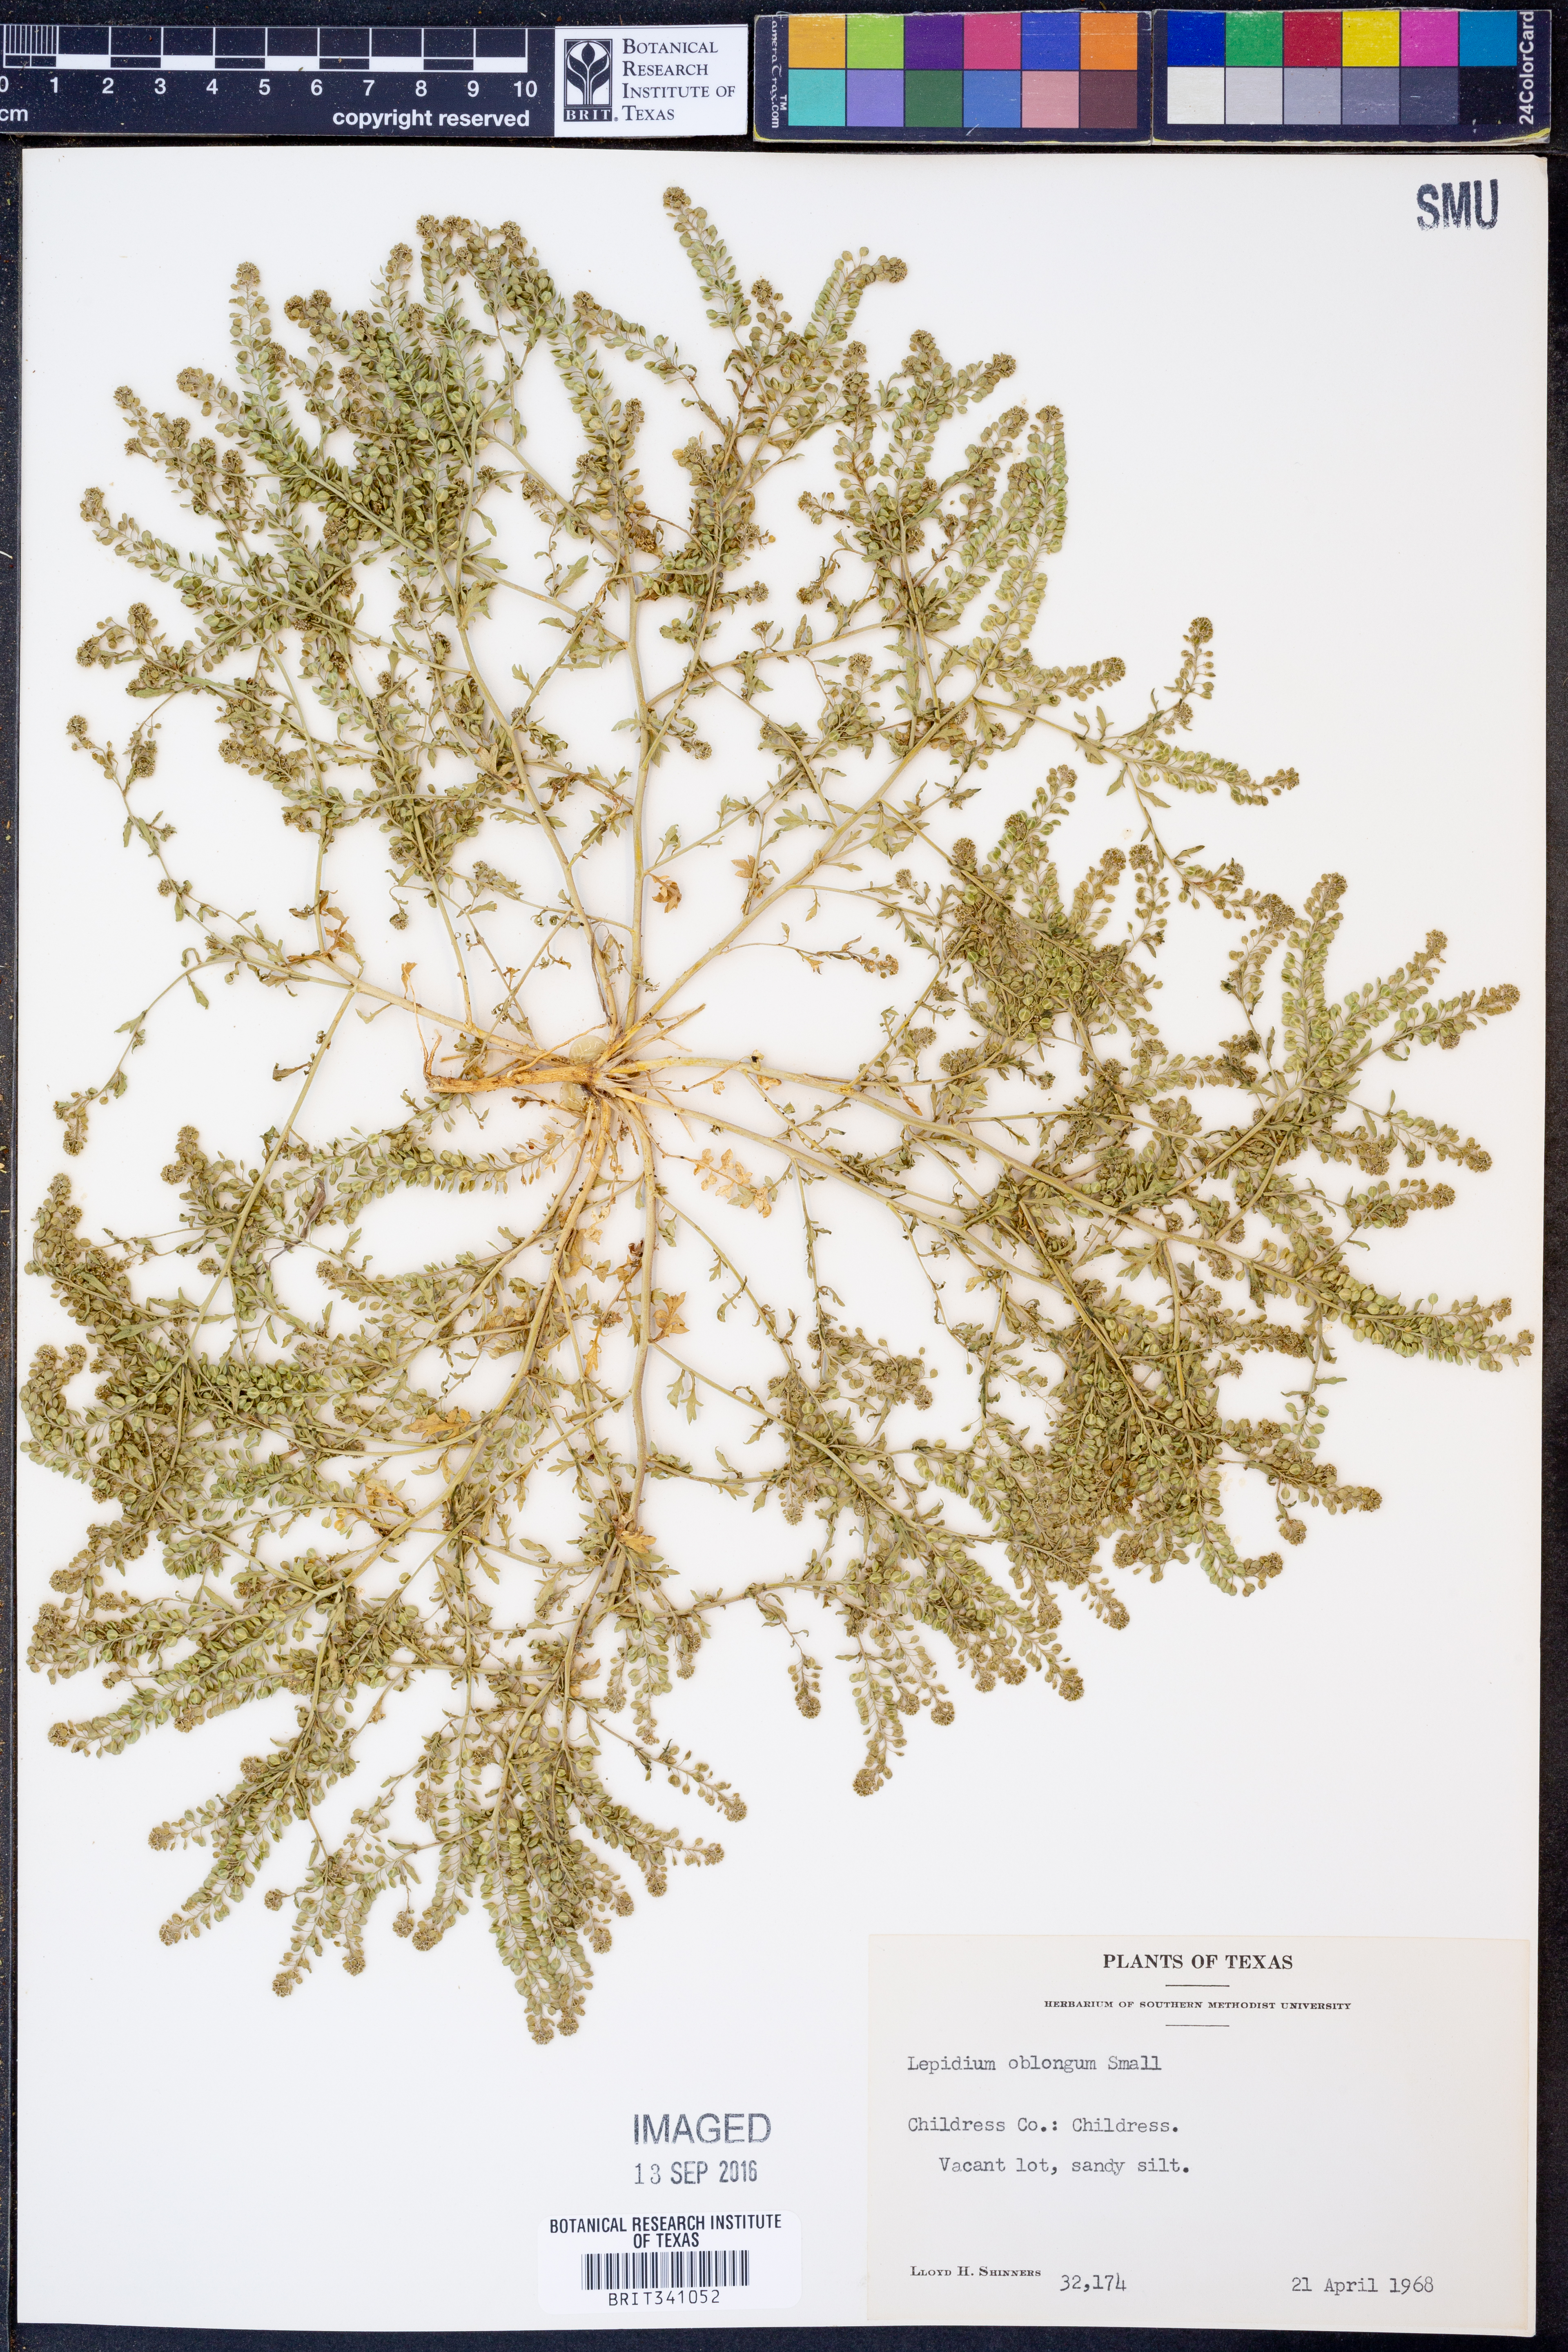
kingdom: Plantae
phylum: Tracheophyta
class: Magnoliopsida
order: Brassicales
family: Brassicaceae
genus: Lepidium
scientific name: Lepidium oblongum
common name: Veiny pepperweed
